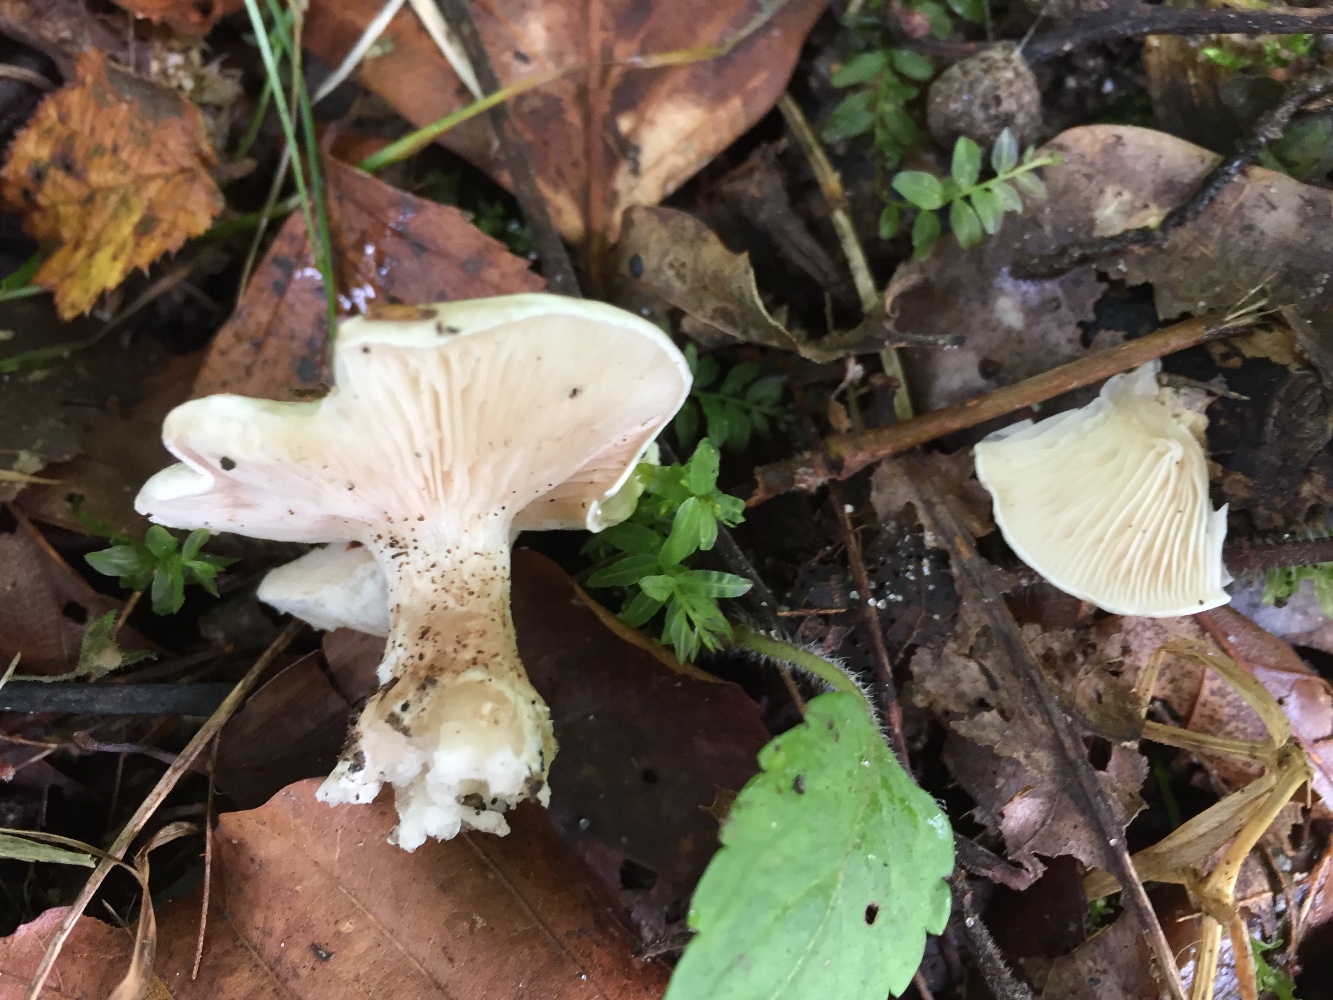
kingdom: Fungi
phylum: Basidiomycota
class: Agaricomycetes
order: Agaricales
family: Entolomataceae
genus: Clitopilus
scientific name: Clitopilus prunulus
